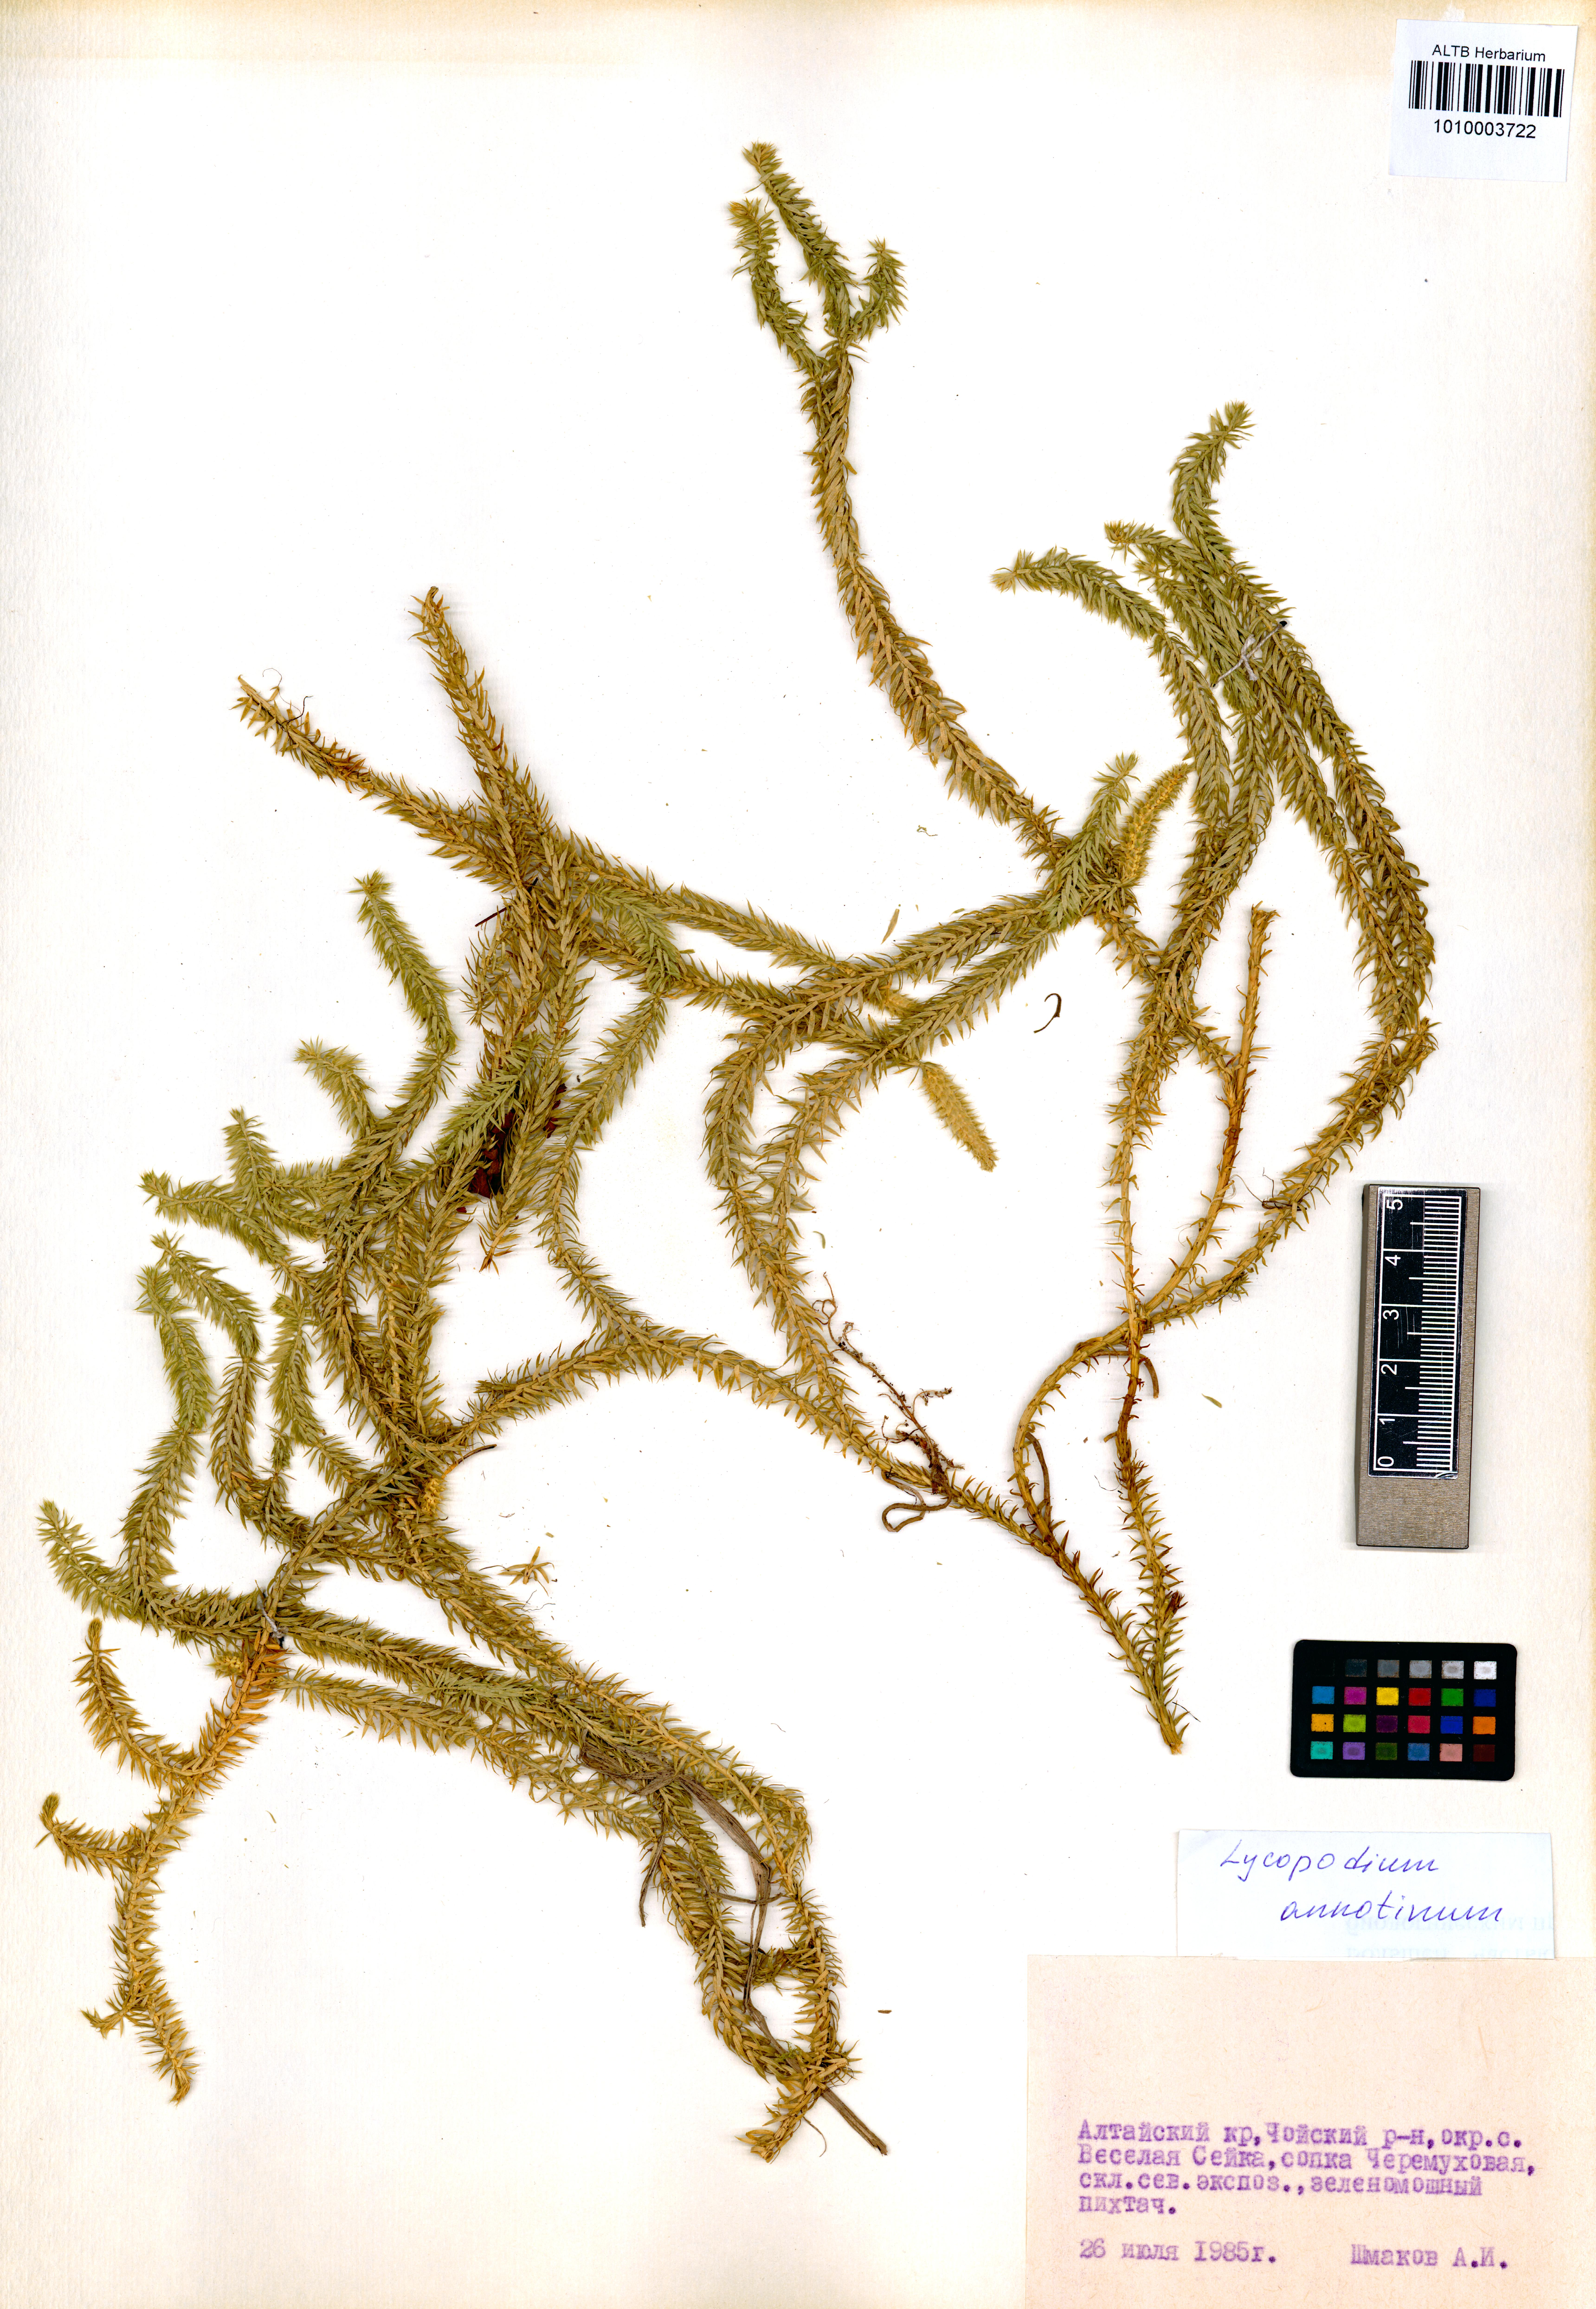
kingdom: Plantae
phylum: Tracheophyta
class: Lycopodiopsida
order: Lycopodiales
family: Lycopodiaceae
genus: Spinulum
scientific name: Spinulum annotinum
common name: Interrupted club-moss
